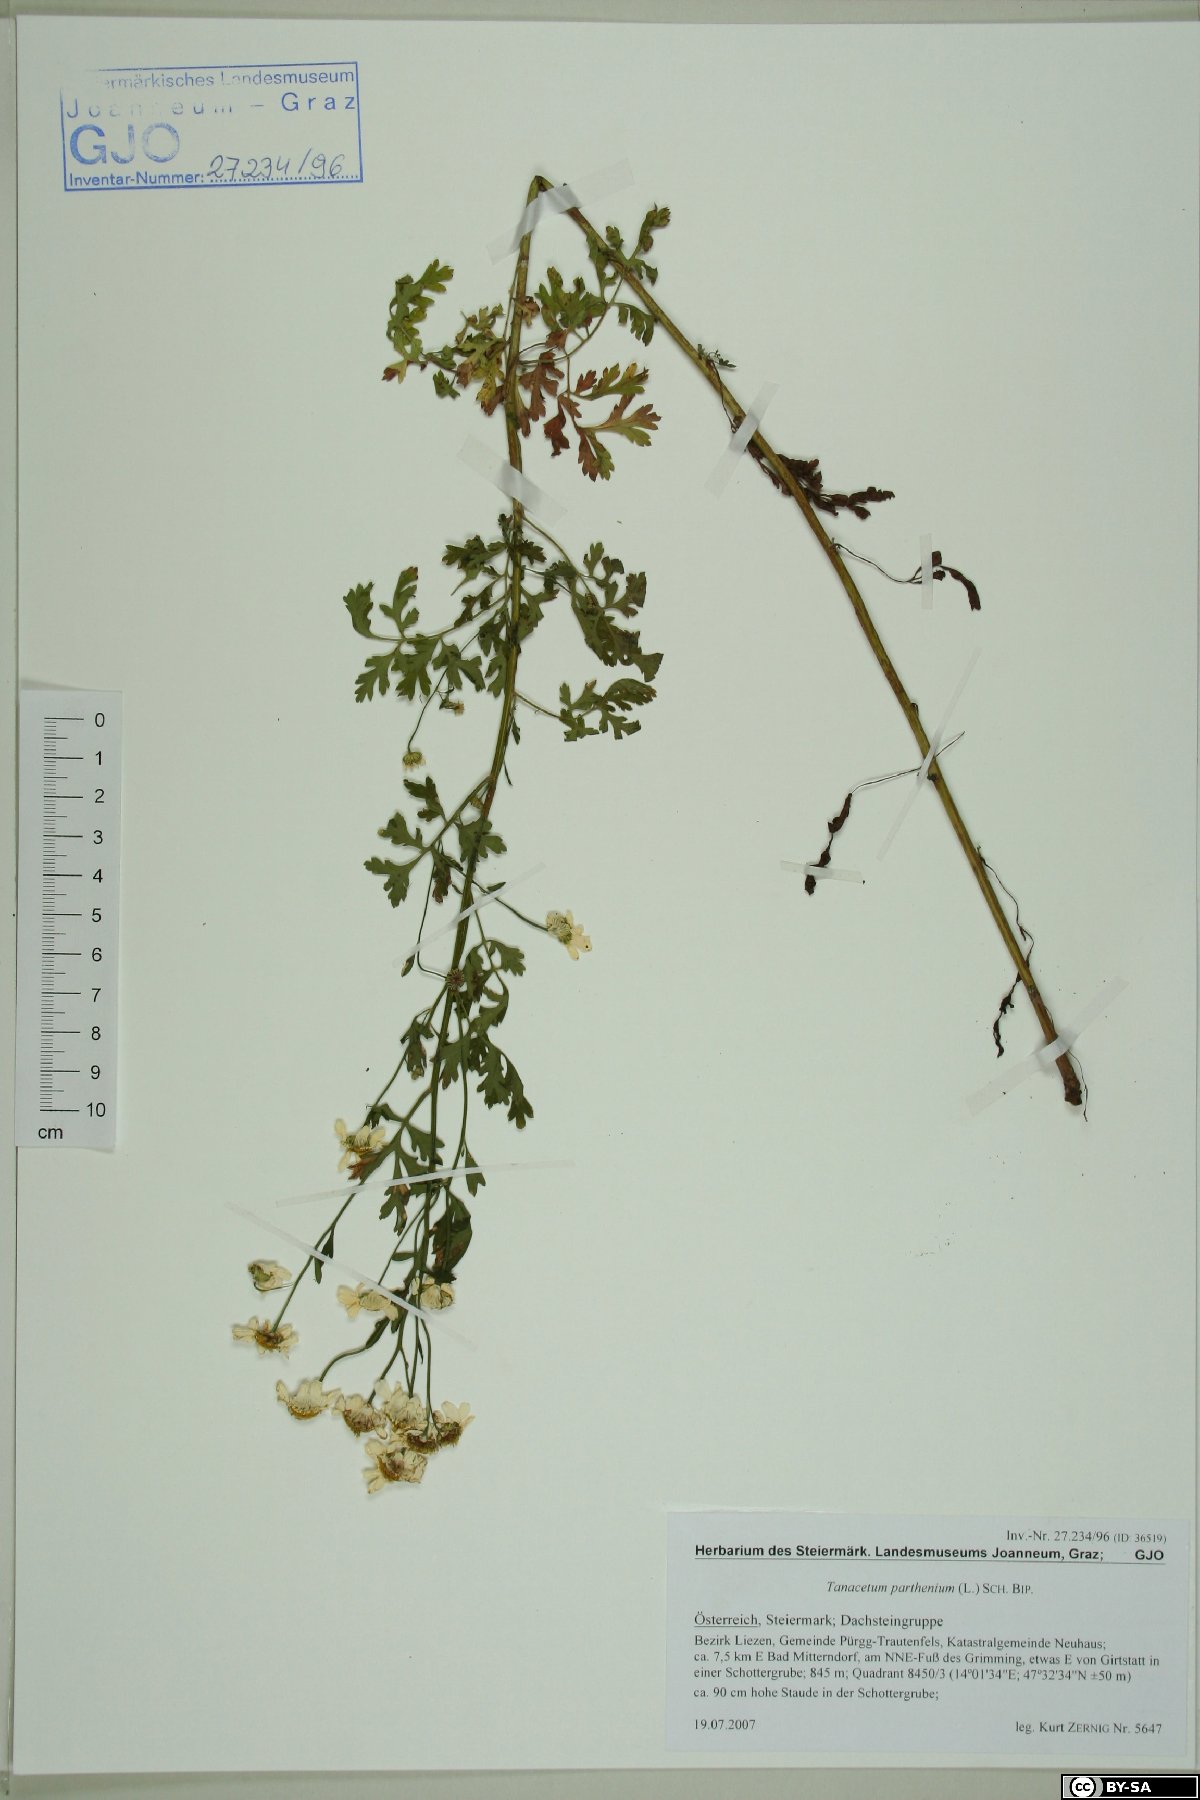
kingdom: Plantae
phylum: Tracheophyta
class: Magnoliopsida
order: Asterales
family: Asteraceae
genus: Tanacetum
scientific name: Tanacetum parthenium
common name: Feverfew
